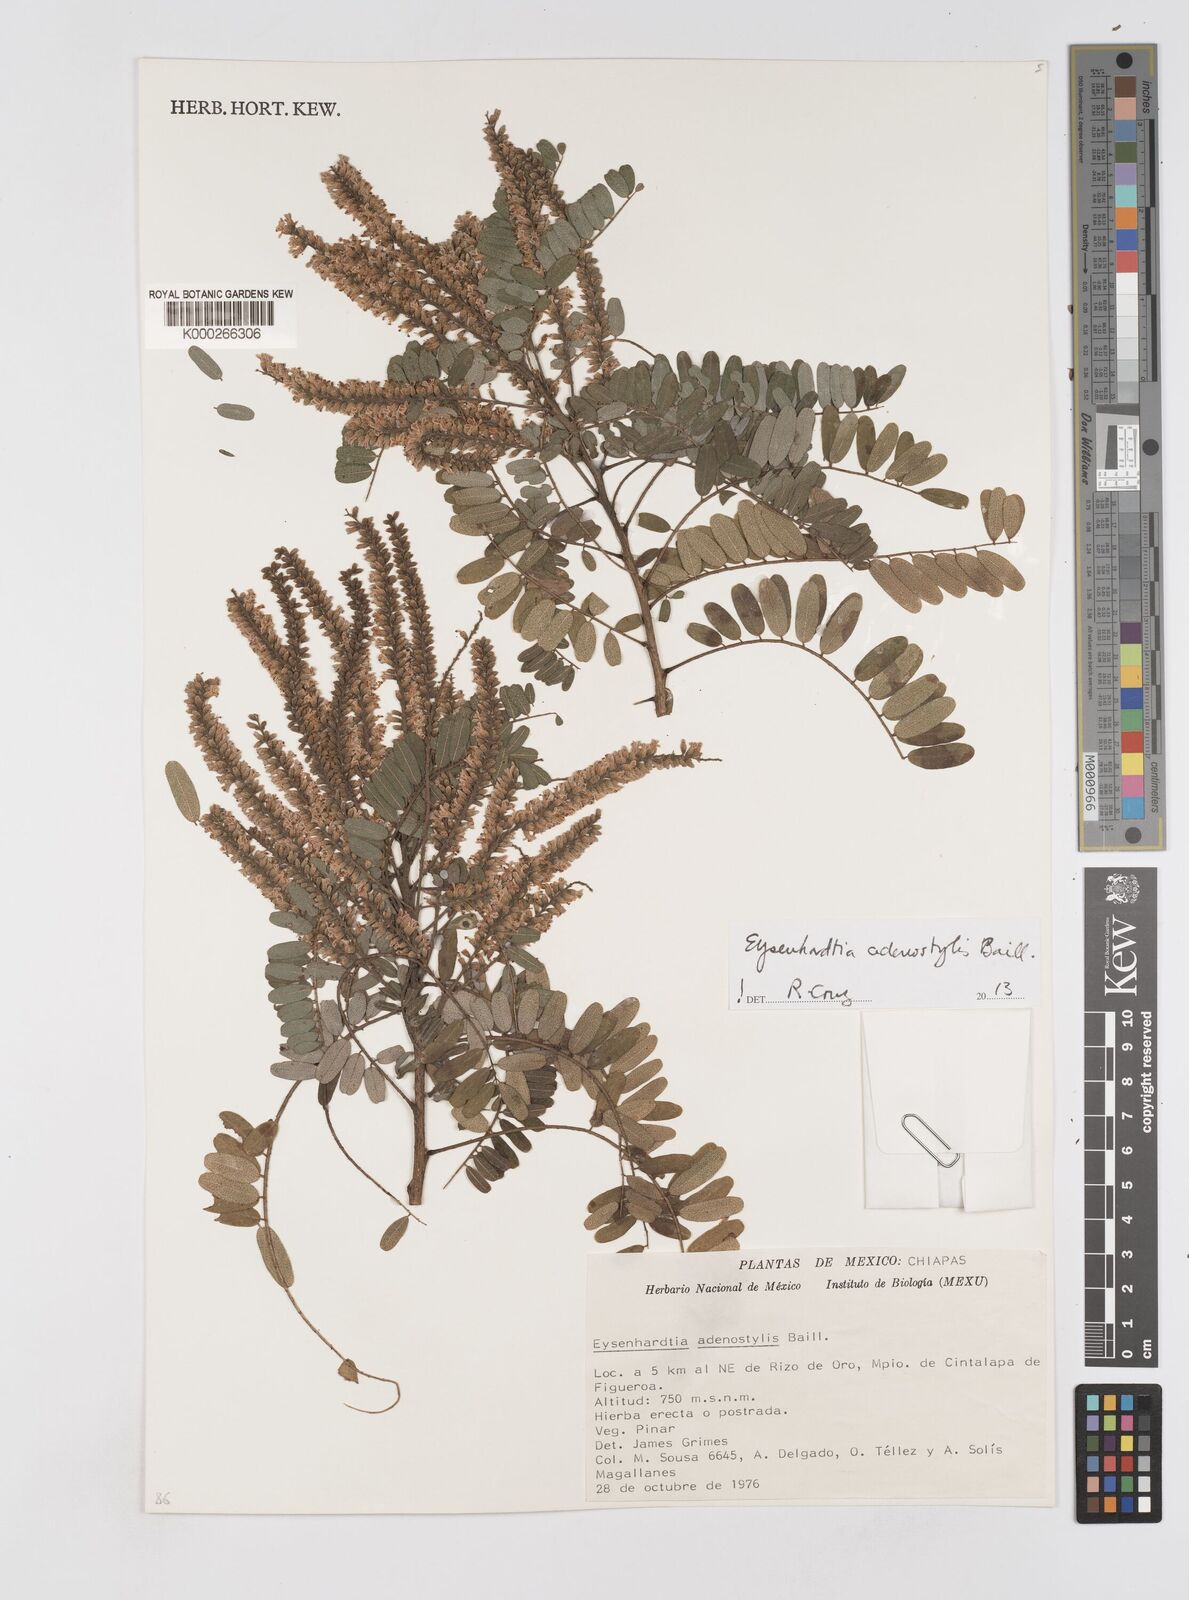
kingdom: Plantae
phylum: Tracheophyta
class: Magnoliopsida
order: Fabales
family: Fabaceae
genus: Eysenhardtia
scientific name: Eysenhardtia adenostylis
